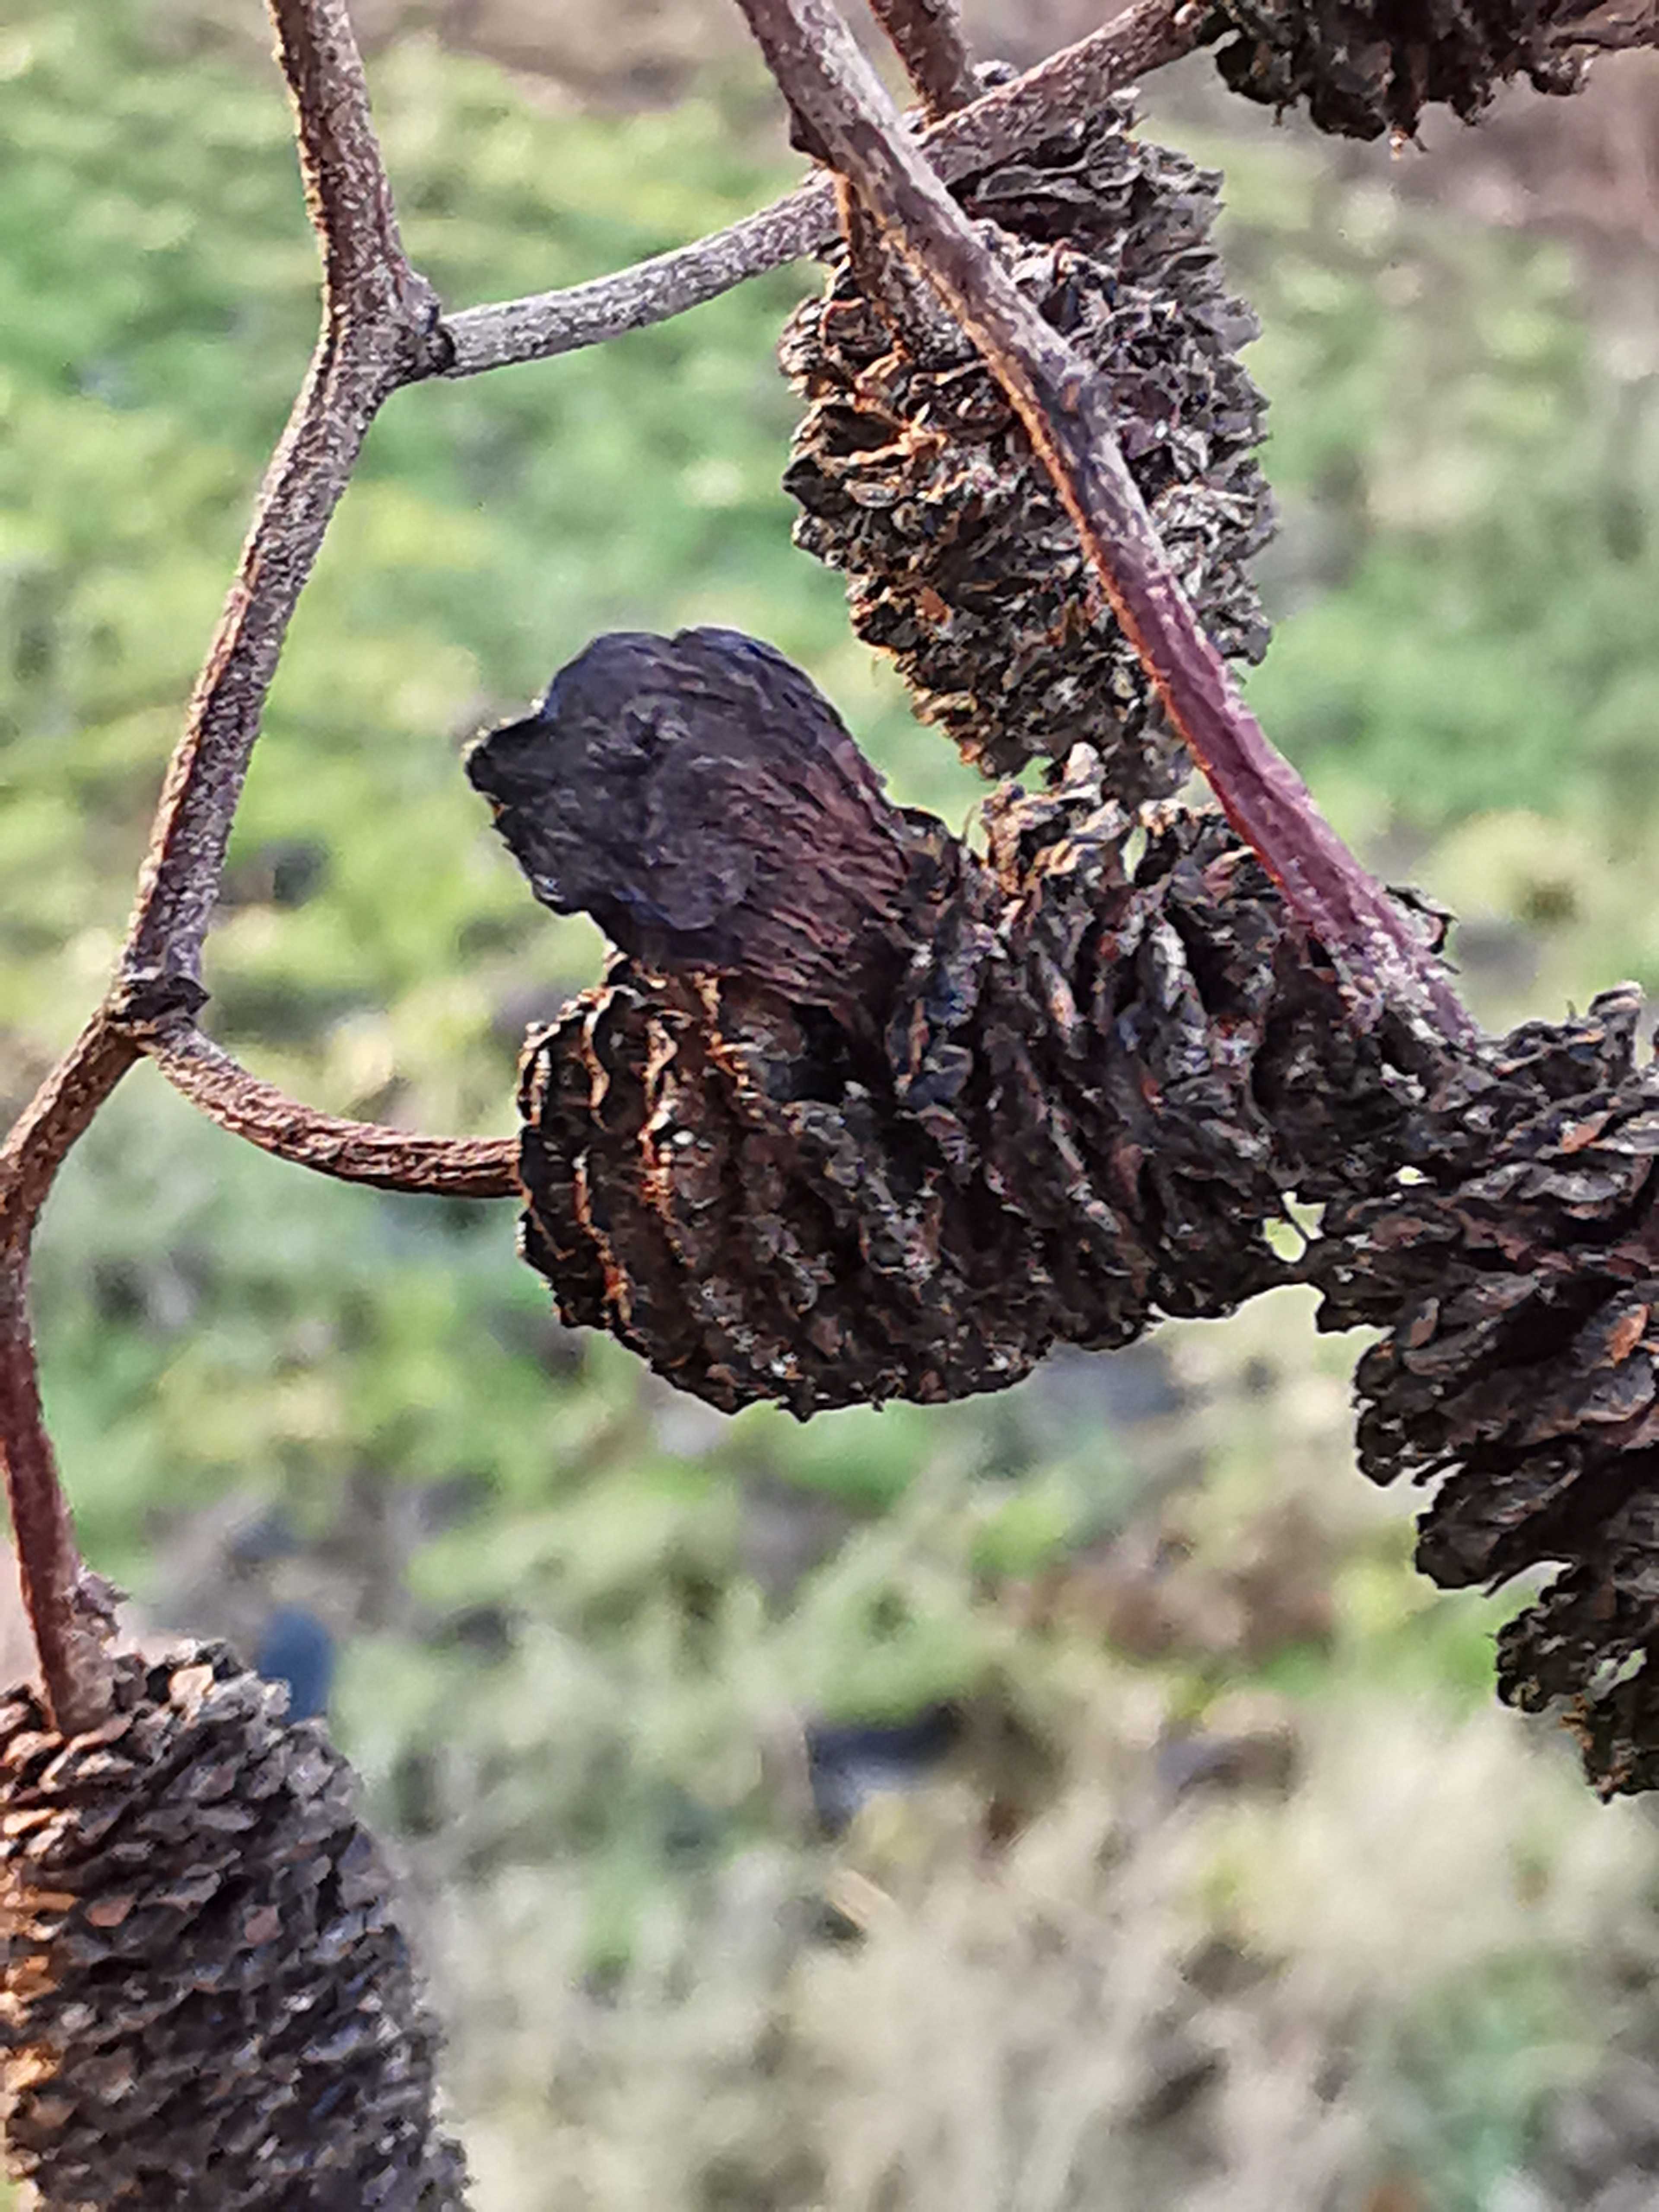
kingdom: Fungi
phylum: Ascomycota
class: Taphrinomycetes
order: Taphrinales
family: Taphrinaceae
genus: Taphrina
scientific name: Taphrina alni
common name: Alder tongue
